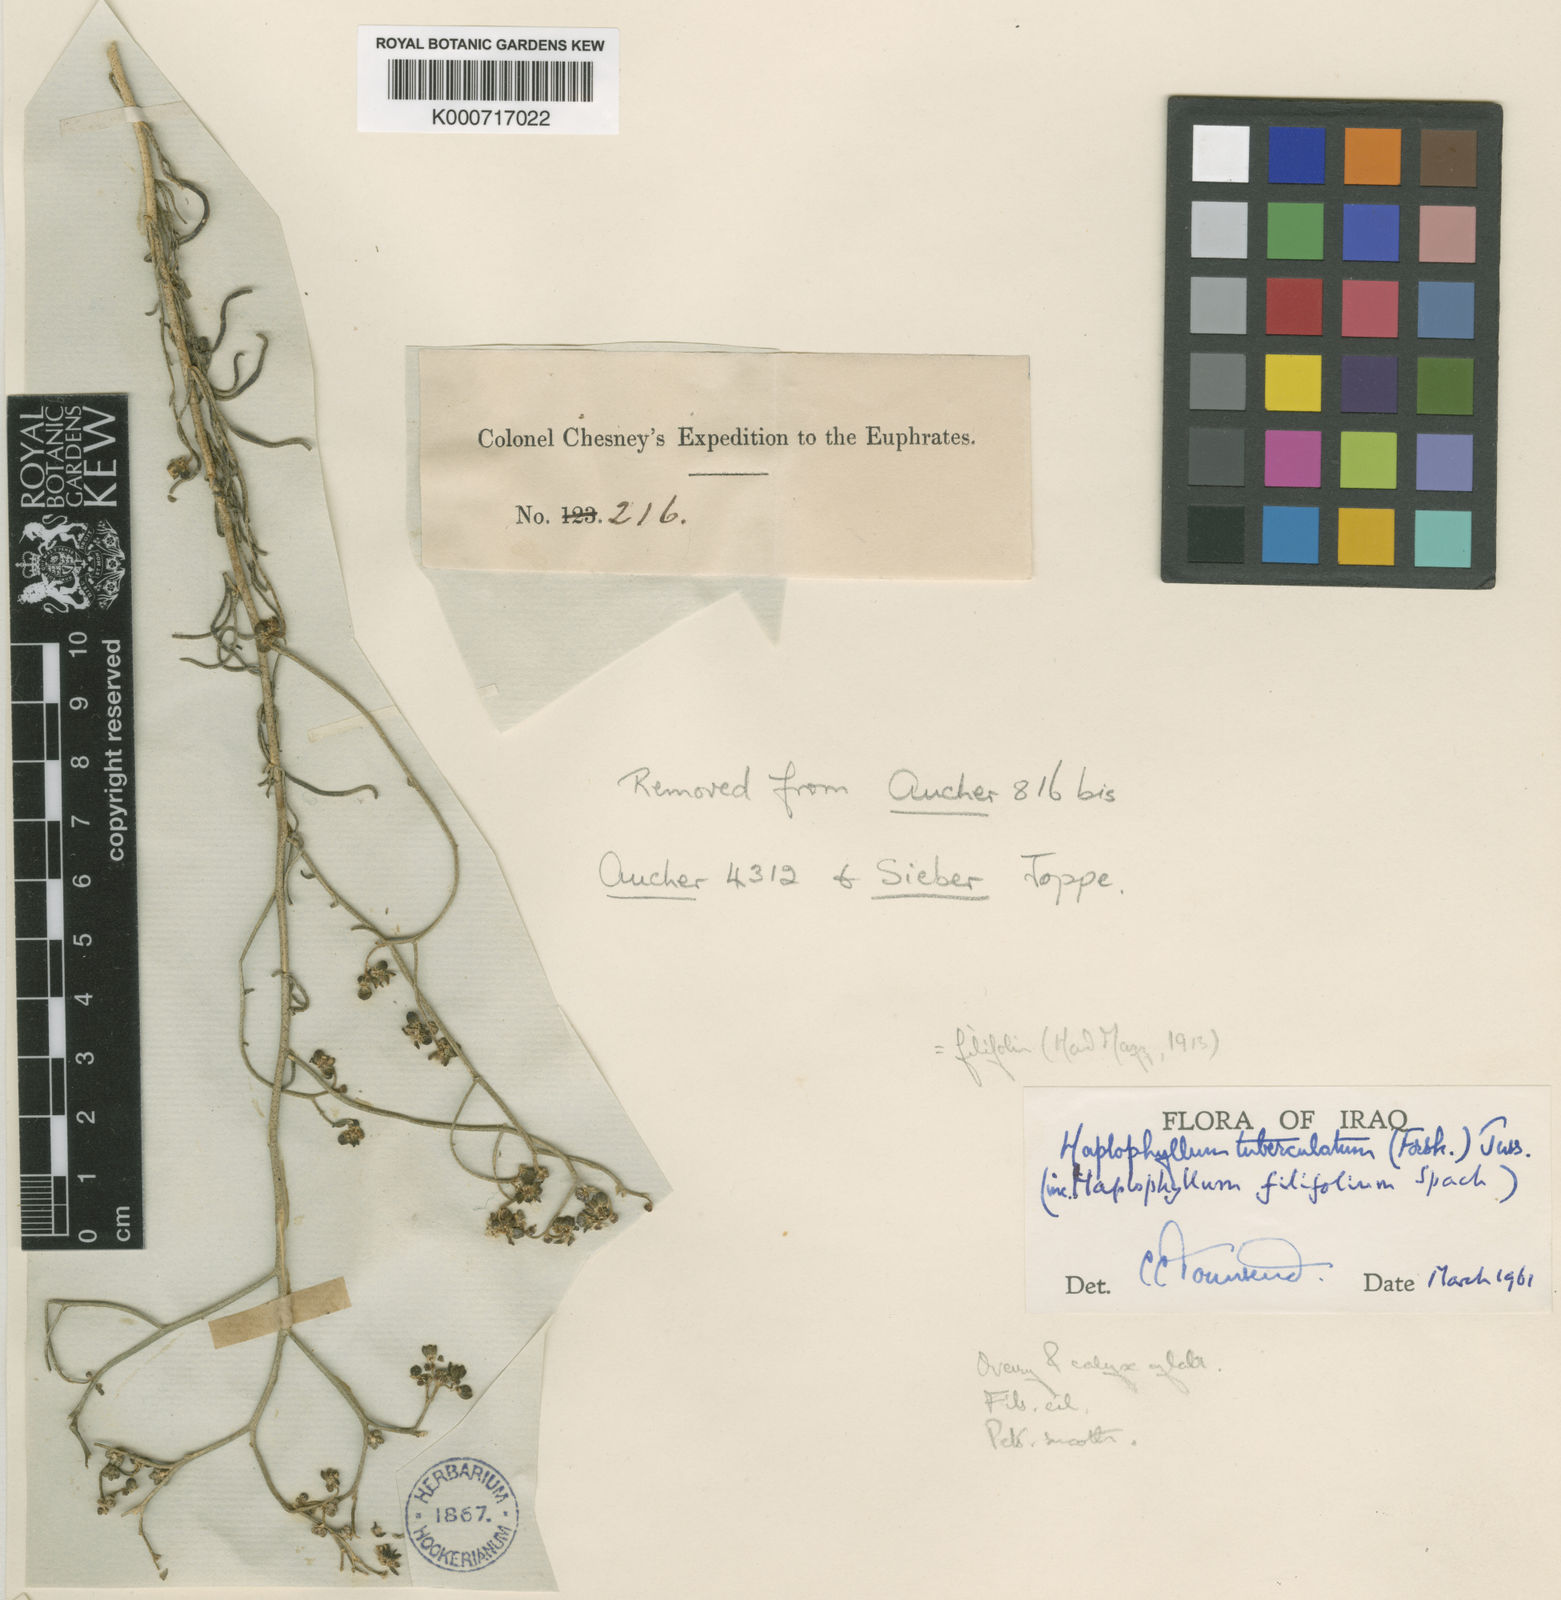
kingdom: Plantae
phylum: Tracheophyta
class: Magnoliopsida
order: Sapindales
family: Rutaceae
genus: Haplophyllum
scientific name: Haplophyllum tuberculatum
